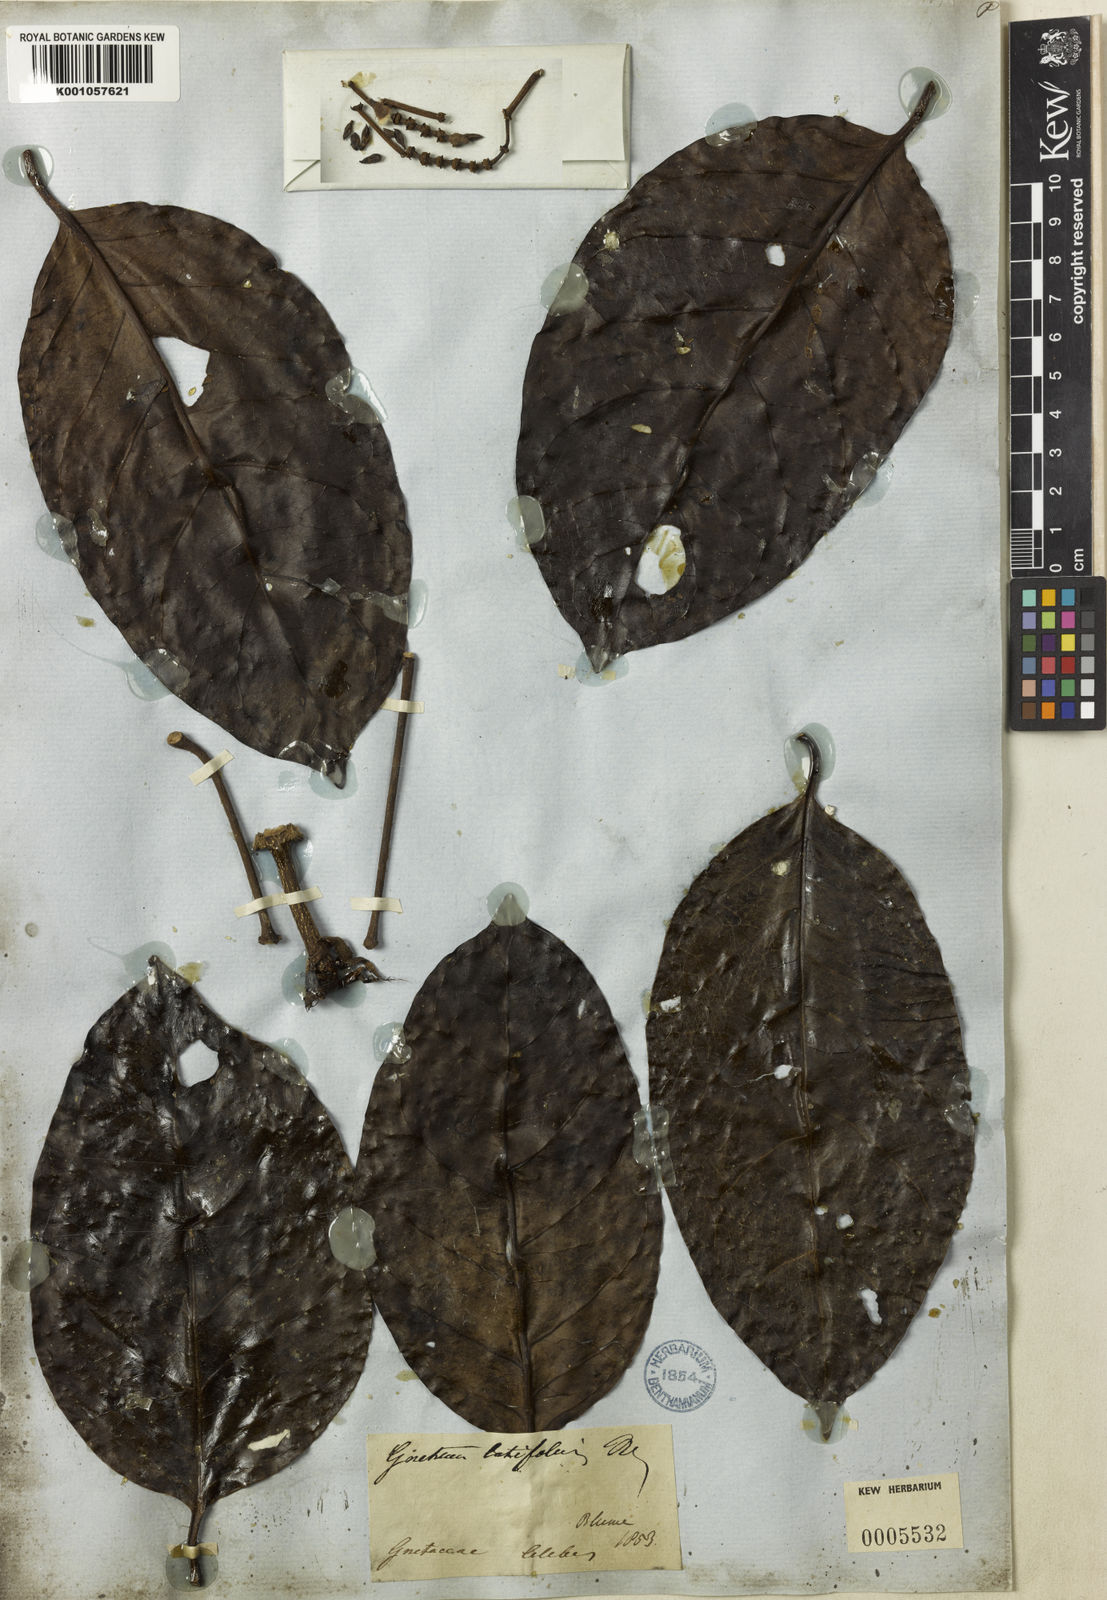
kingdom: Plantae
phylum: Tracheophyta
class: Gnetopsida
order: Gnetales
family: Gnetaceae
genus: Gnetum
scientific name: Gnetum latifolium
